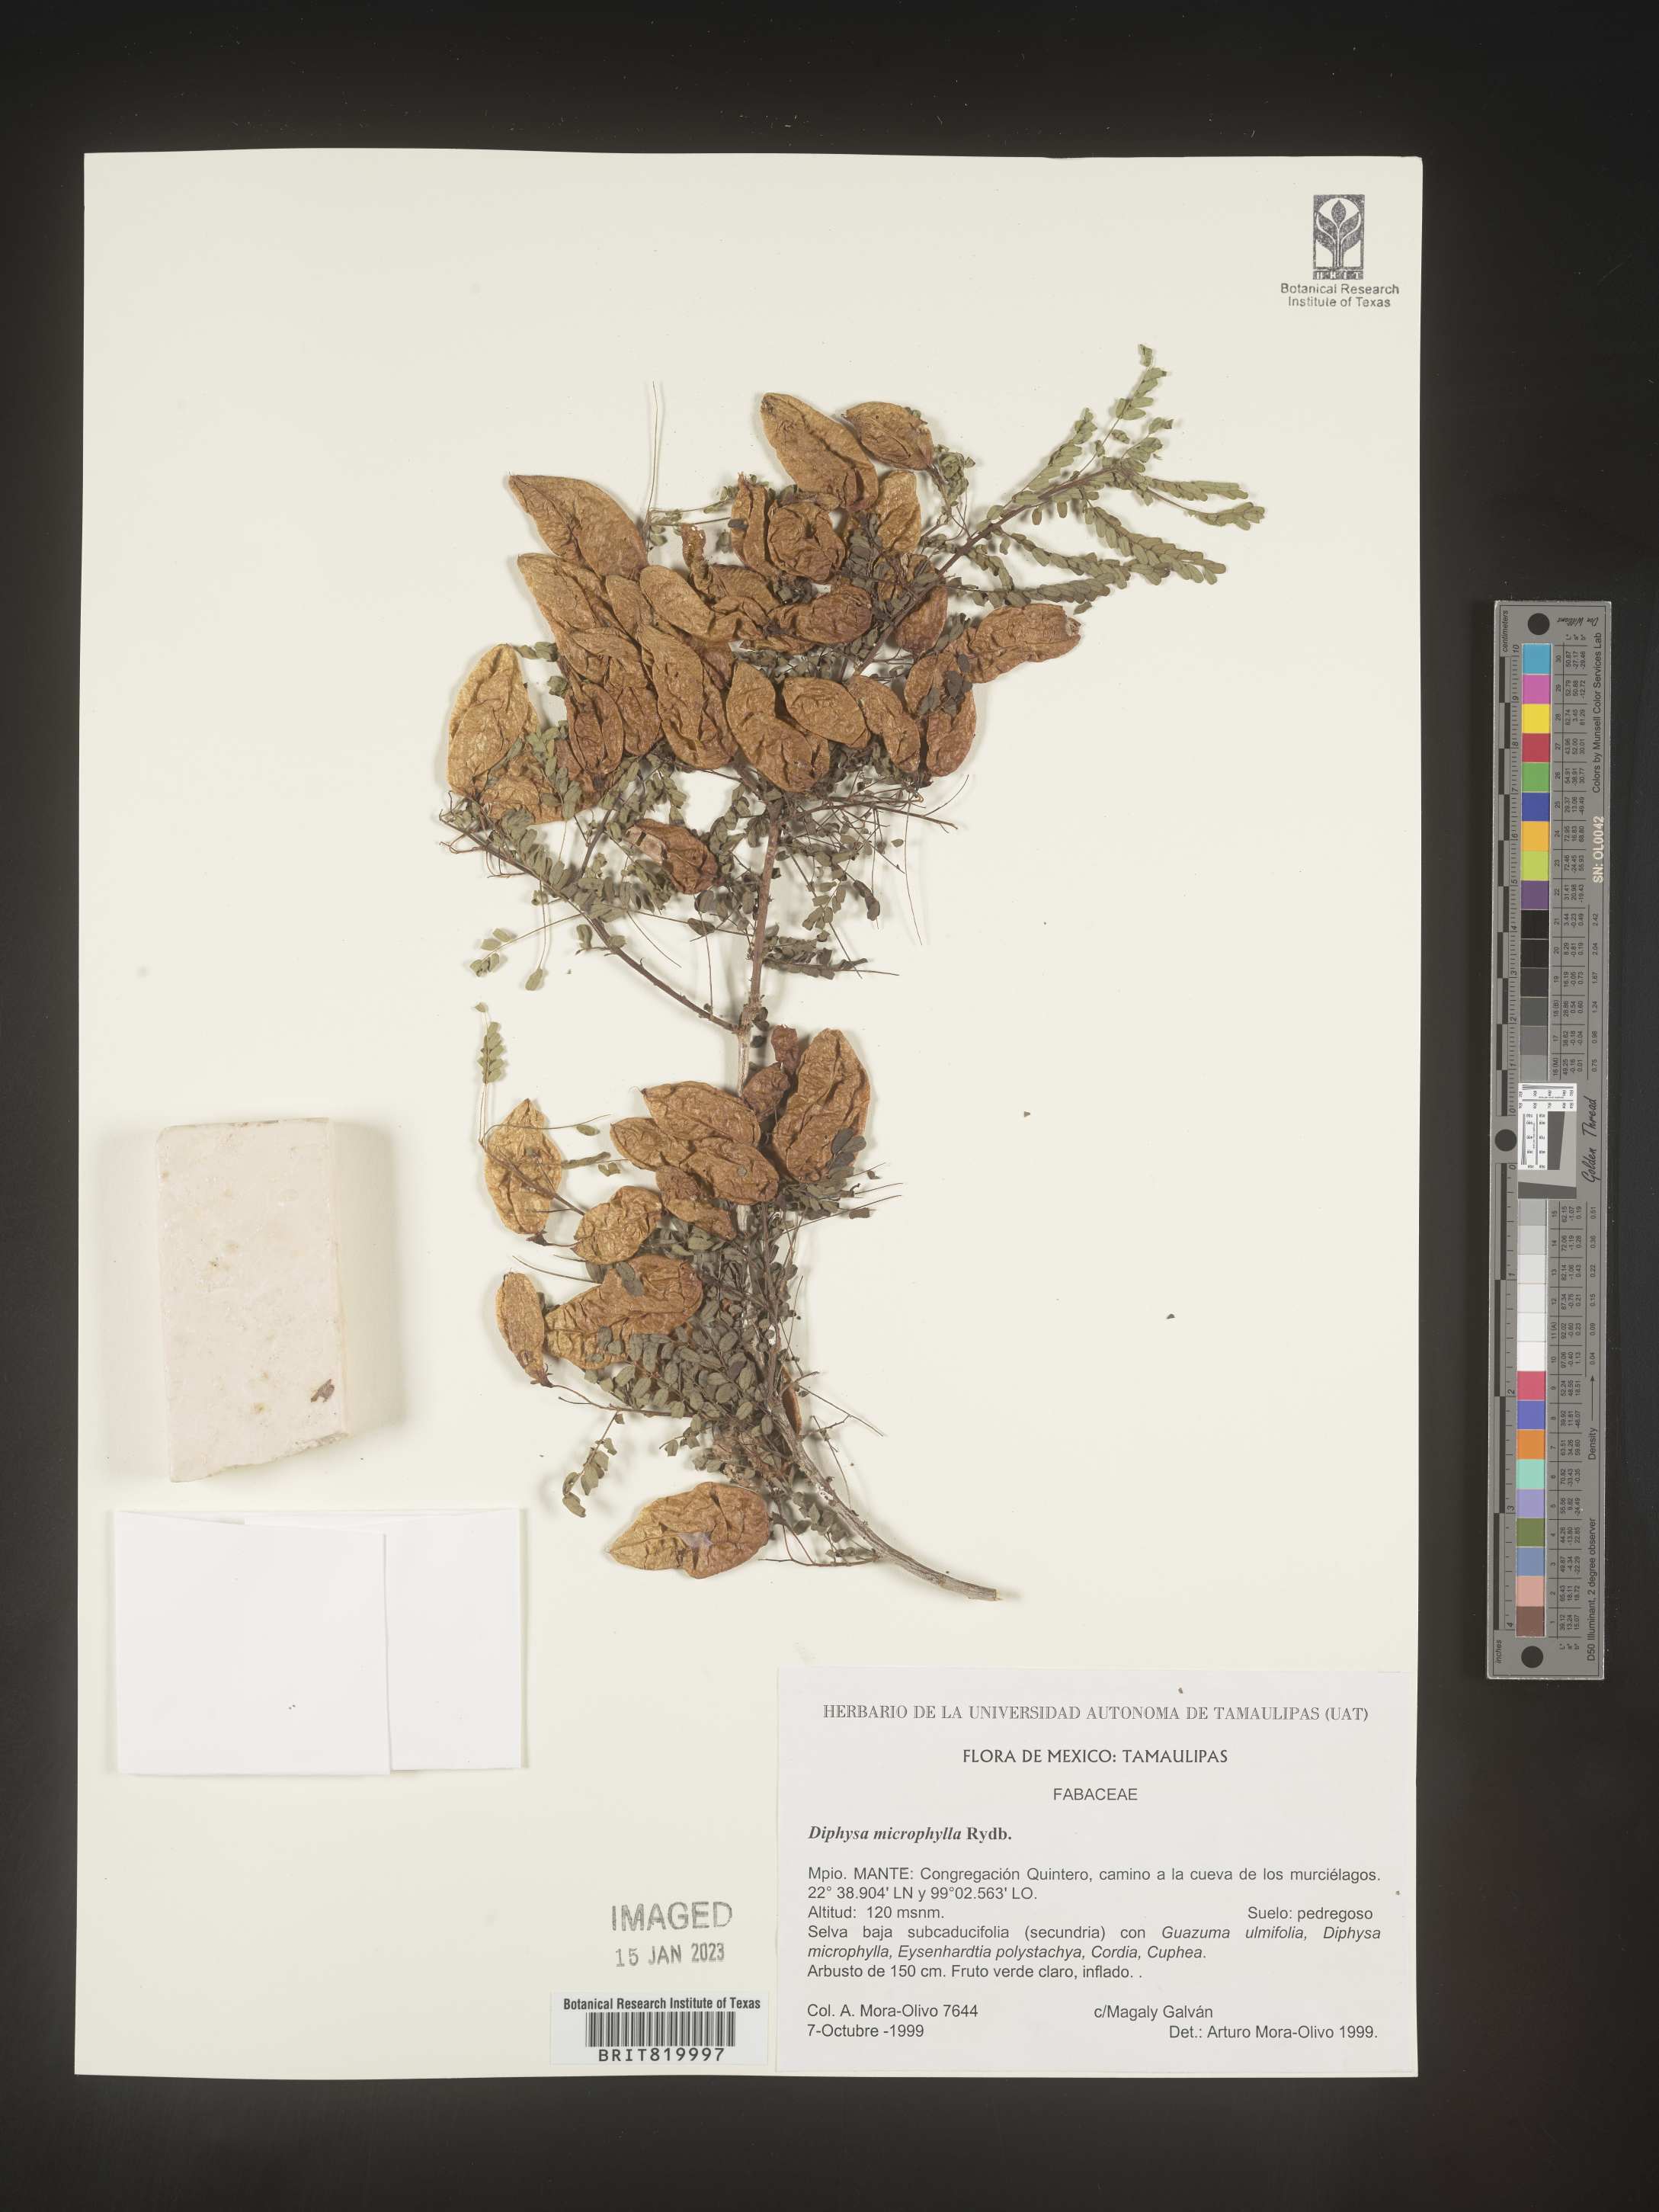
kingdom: Plantae
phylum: Tracheophyta
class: Magnoliopsida
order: Fabales
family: Fabaceae
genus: Diphysa
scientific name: Diphysa
